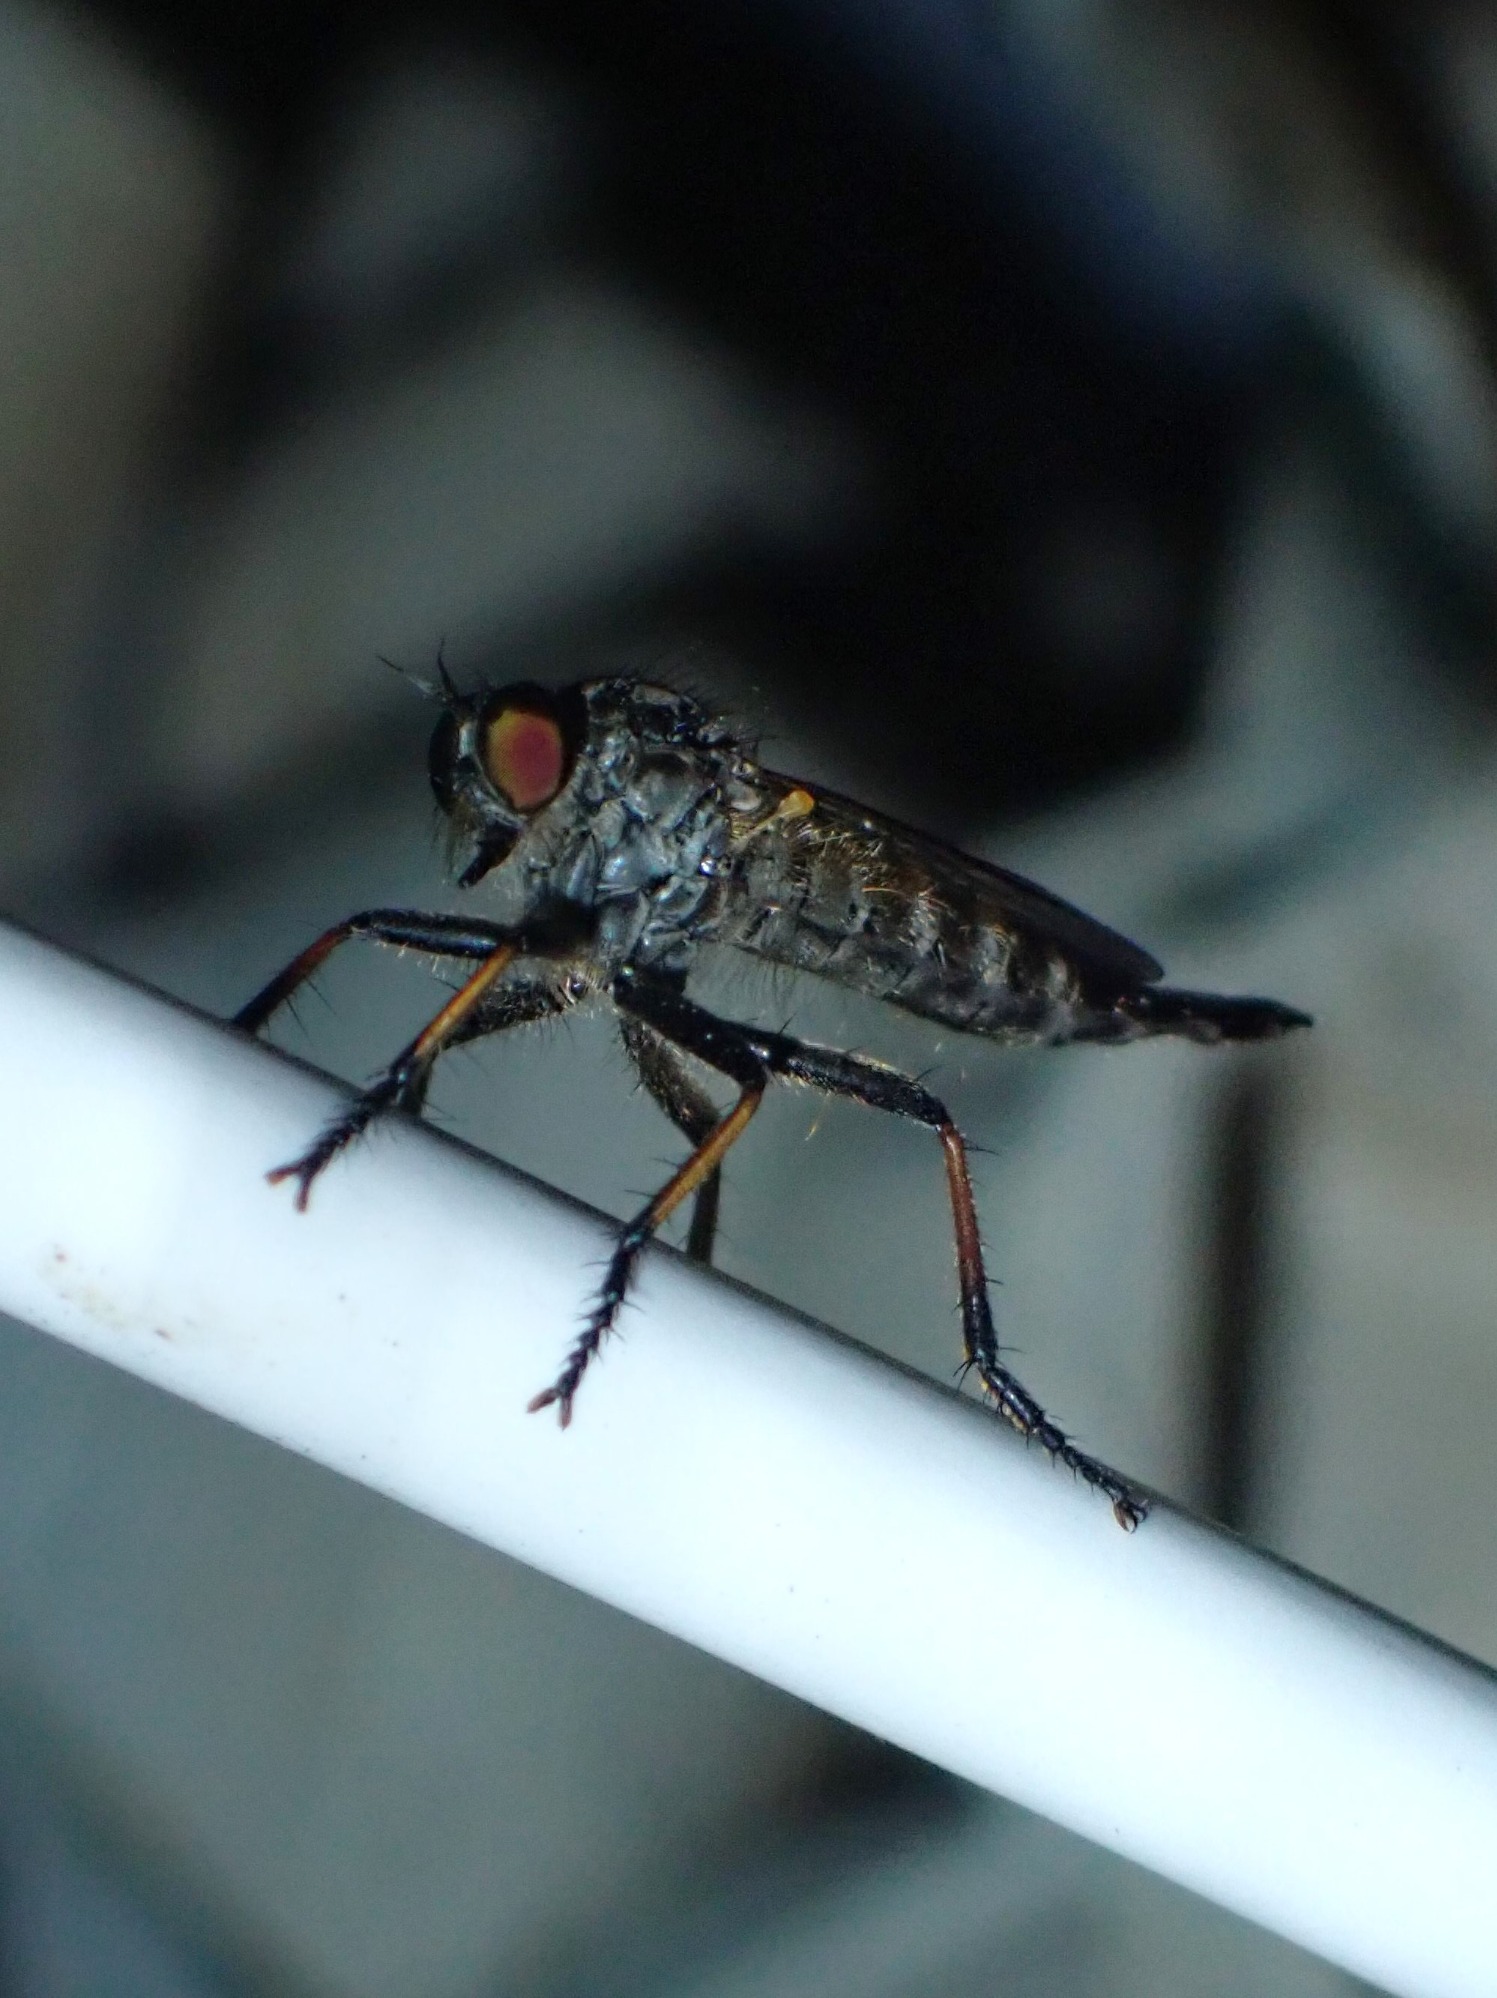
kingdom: Animalia
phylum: Arthropoda
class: Insecta
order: Diptera
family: Asilidae
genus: Neoitamus
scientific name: Neoitamus cyanurus
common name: Sortfodet skovrovflue
